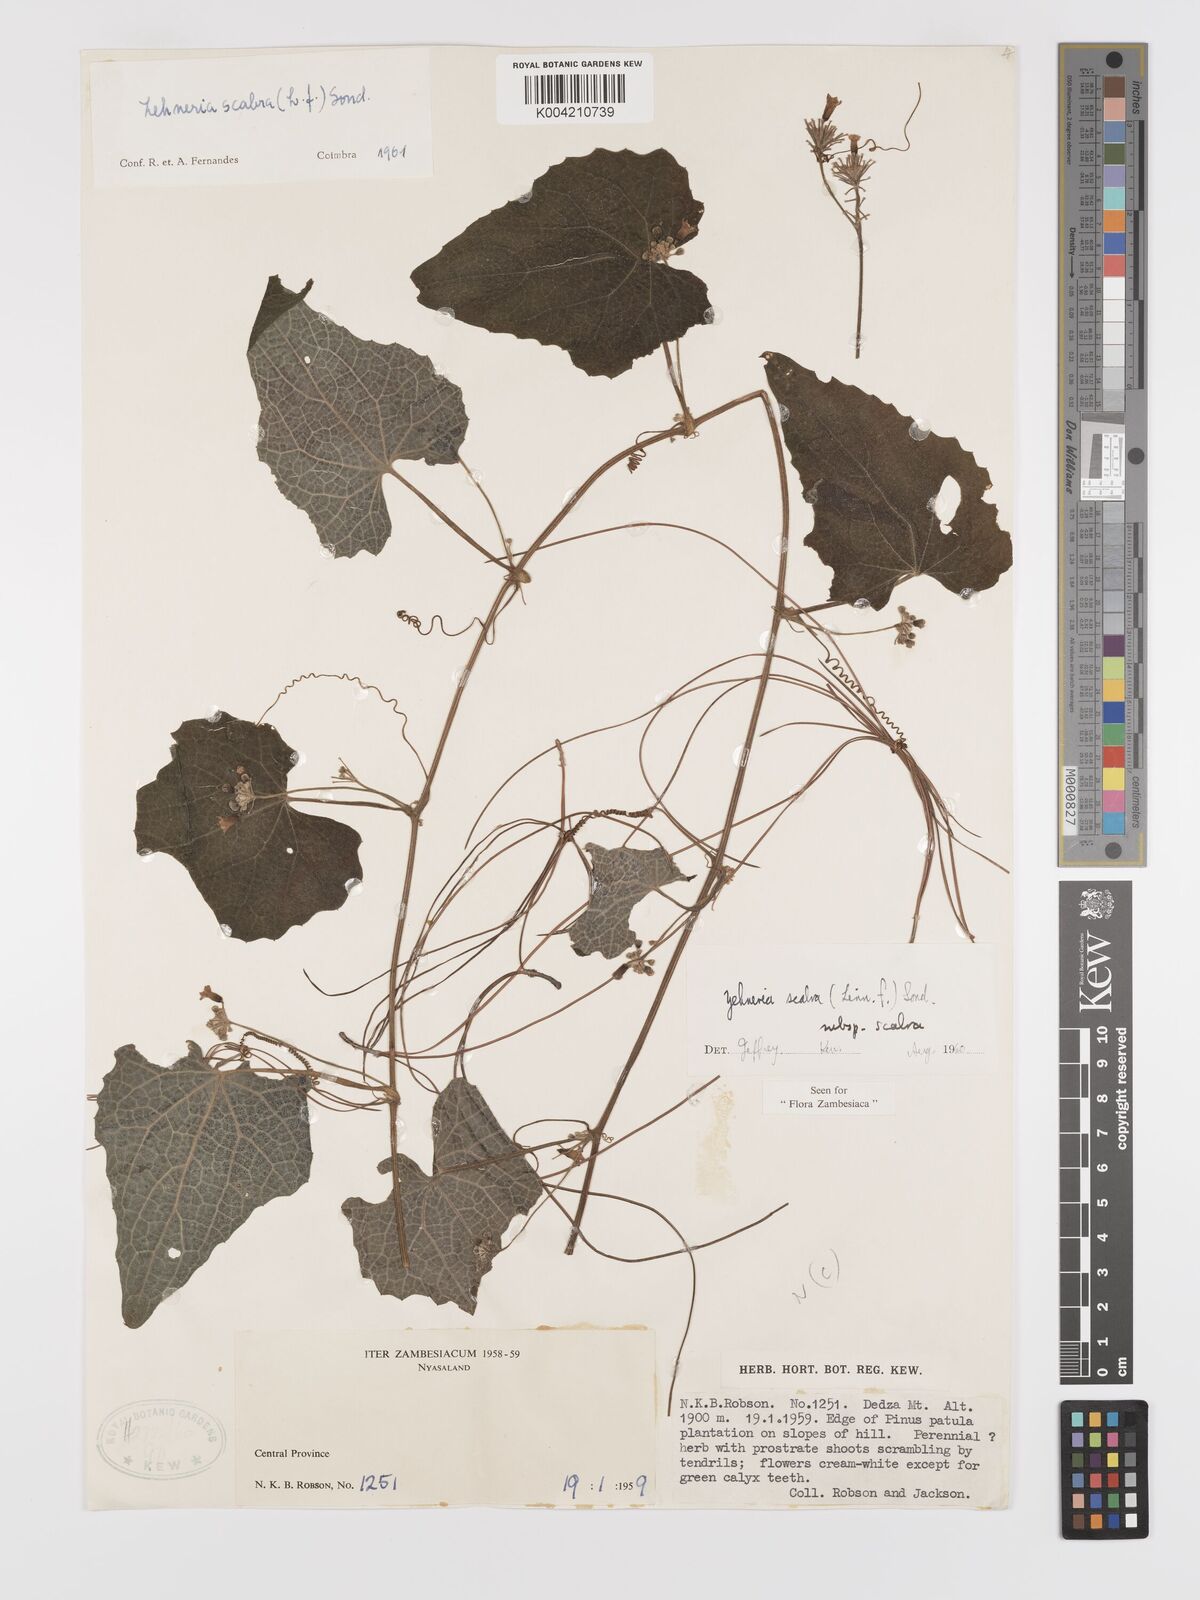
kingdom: Plantae
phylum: Tracheophyta
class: Magnoliopsida
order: Cucurbitales
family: Cucurbitaceae
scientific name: Cucurbitaceae
